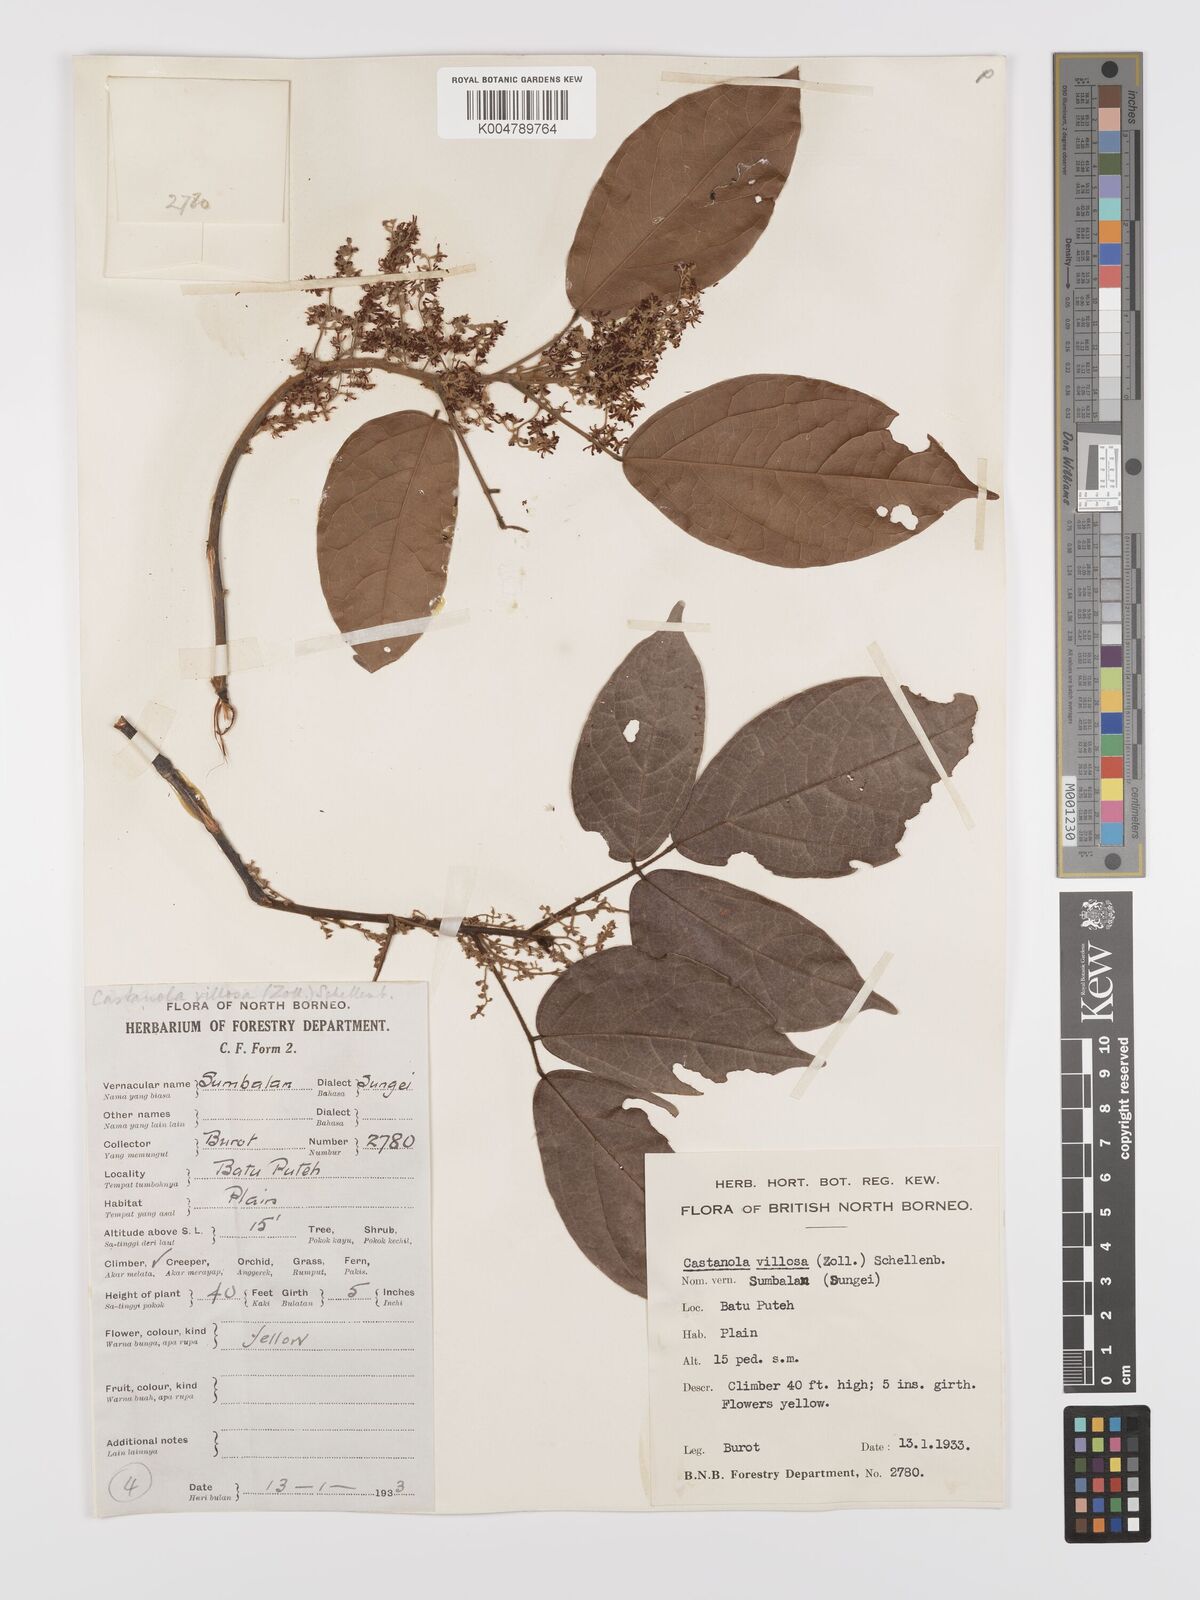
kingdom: Plantae
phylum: Tracheophyta
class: Magnoliopsida
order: Oxalidales
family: Connaraceae
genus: Agelaea
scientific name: Agelaea borneensis
